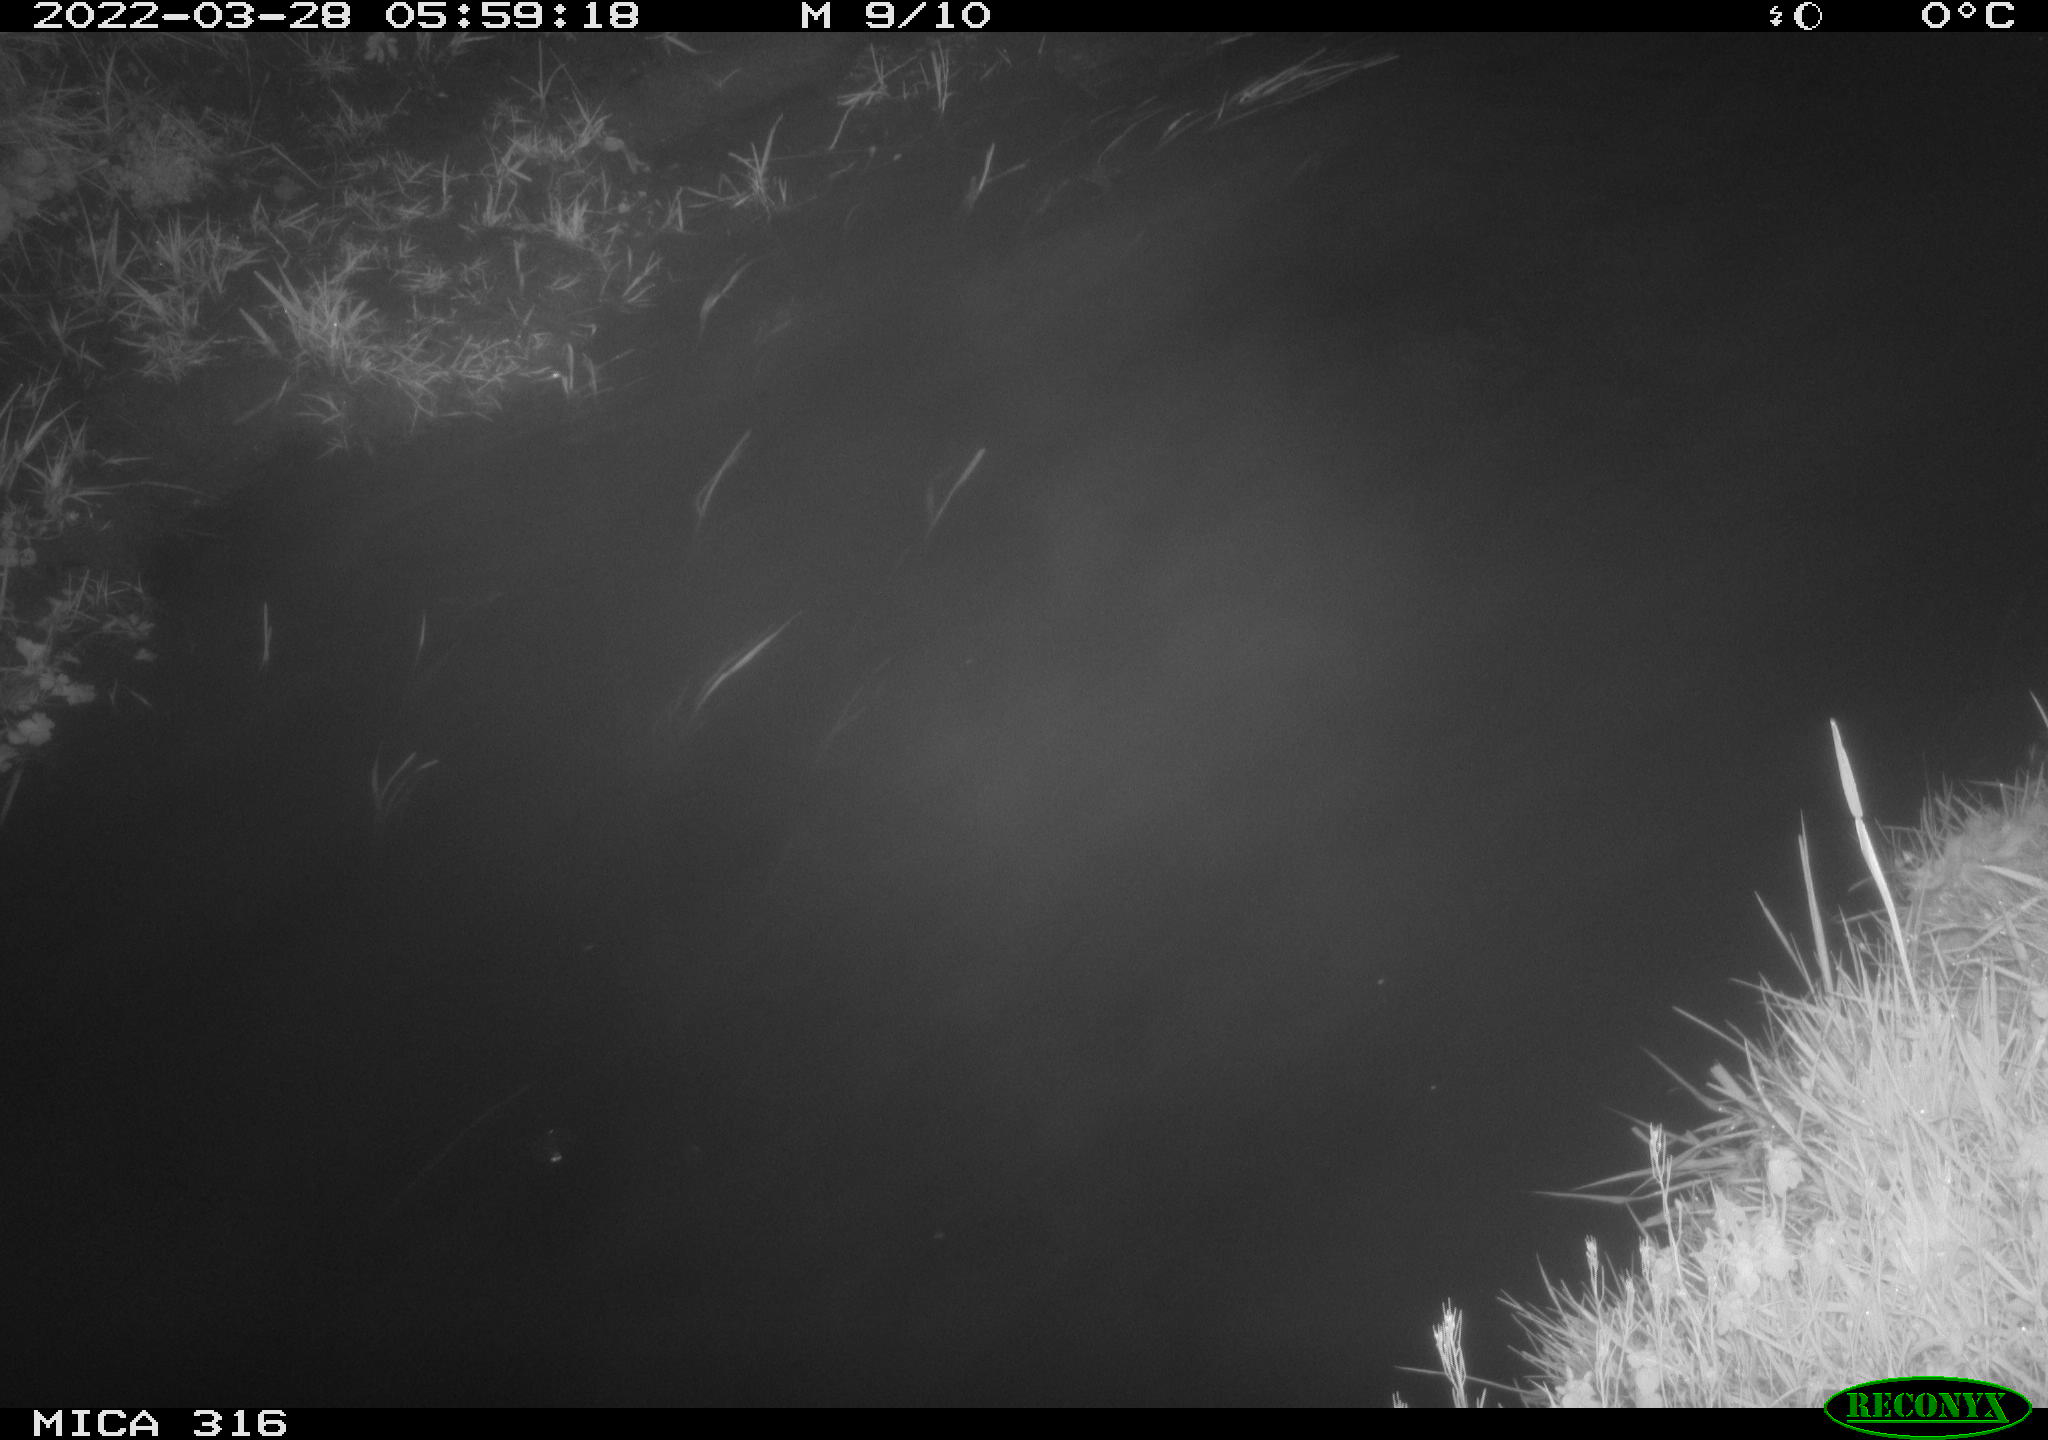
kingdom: Animalia
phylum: Chordata
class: Aves
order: Anseriformes
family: Anatidae
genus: Anas
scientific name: Anas platyrhynchos
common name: Mallard
